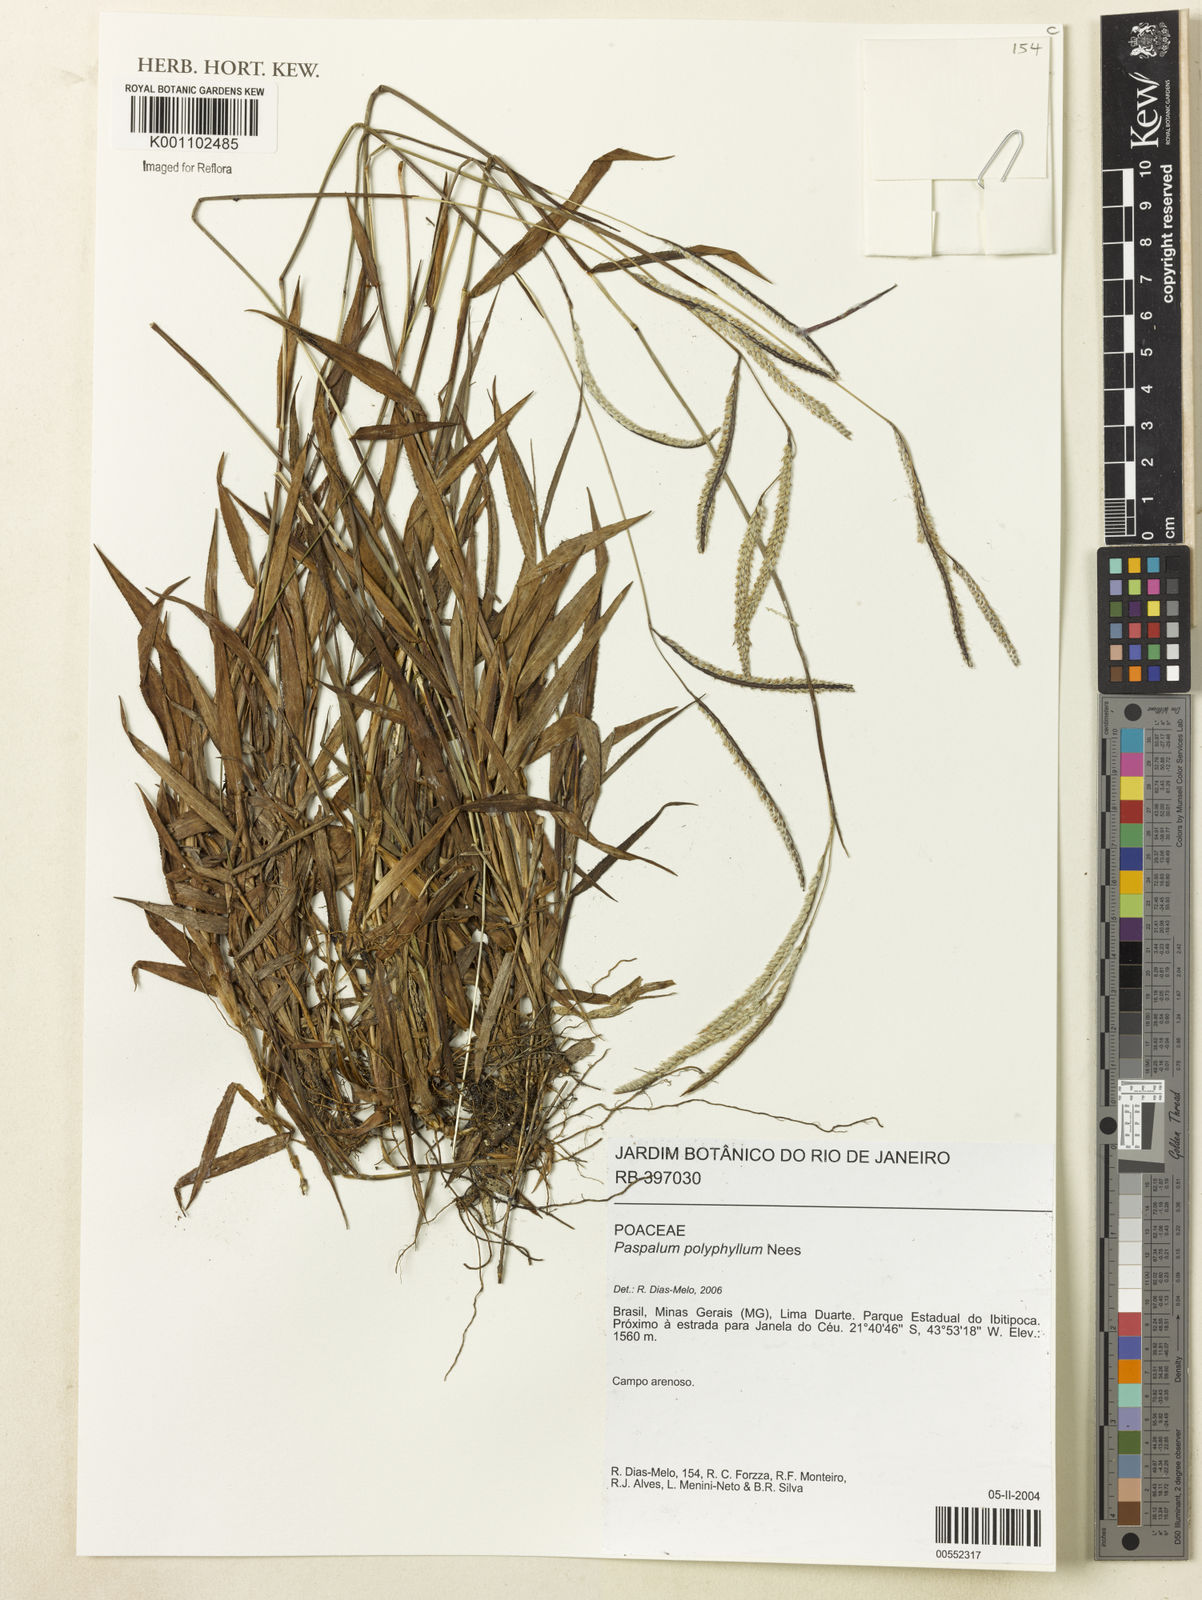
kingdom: Plantae
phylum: Tracheophyta
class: Liliopsida
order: Poales
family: Poaceae
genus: Paspalum
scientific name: Paspalum
